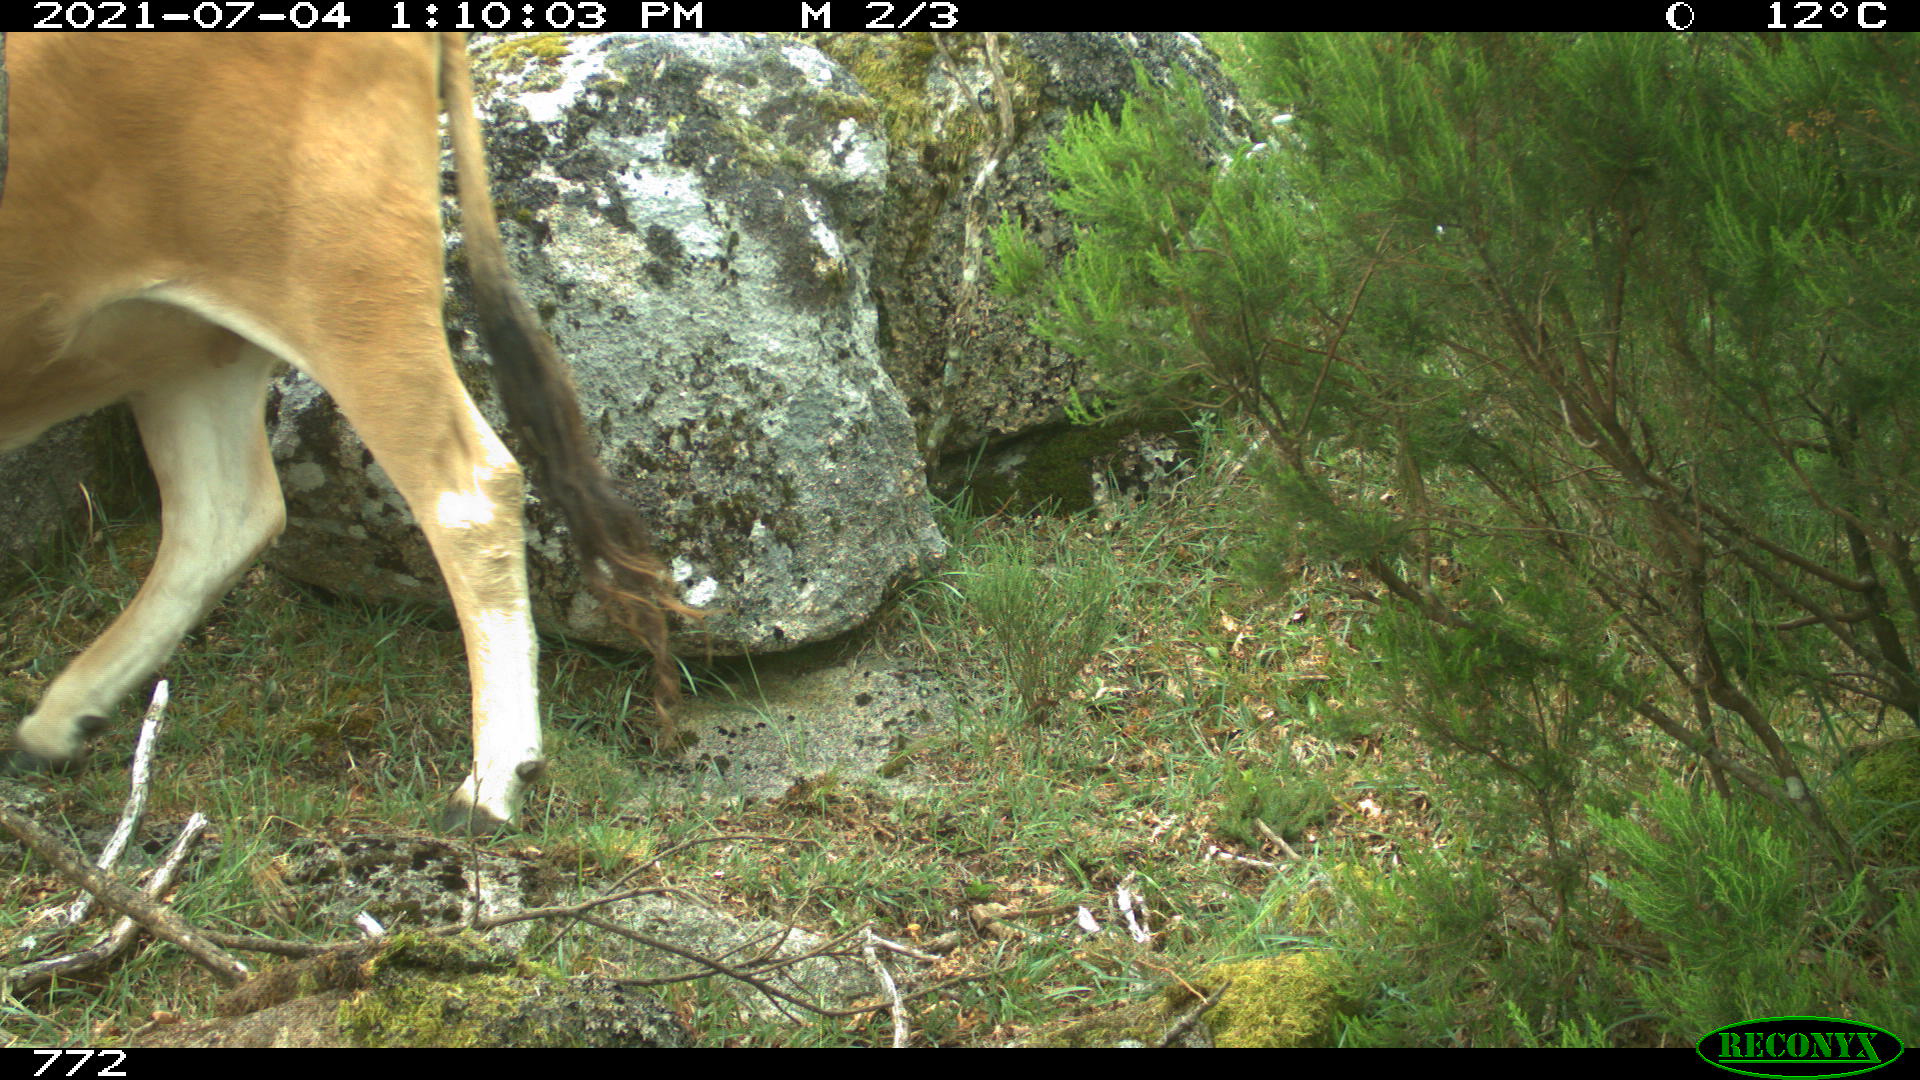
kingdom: Animalia
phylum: Chordata
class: Mammalia
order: Artiodactyla
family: Bovidae
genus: Bos
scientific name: Bos taurus
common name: Domesticated cattle
